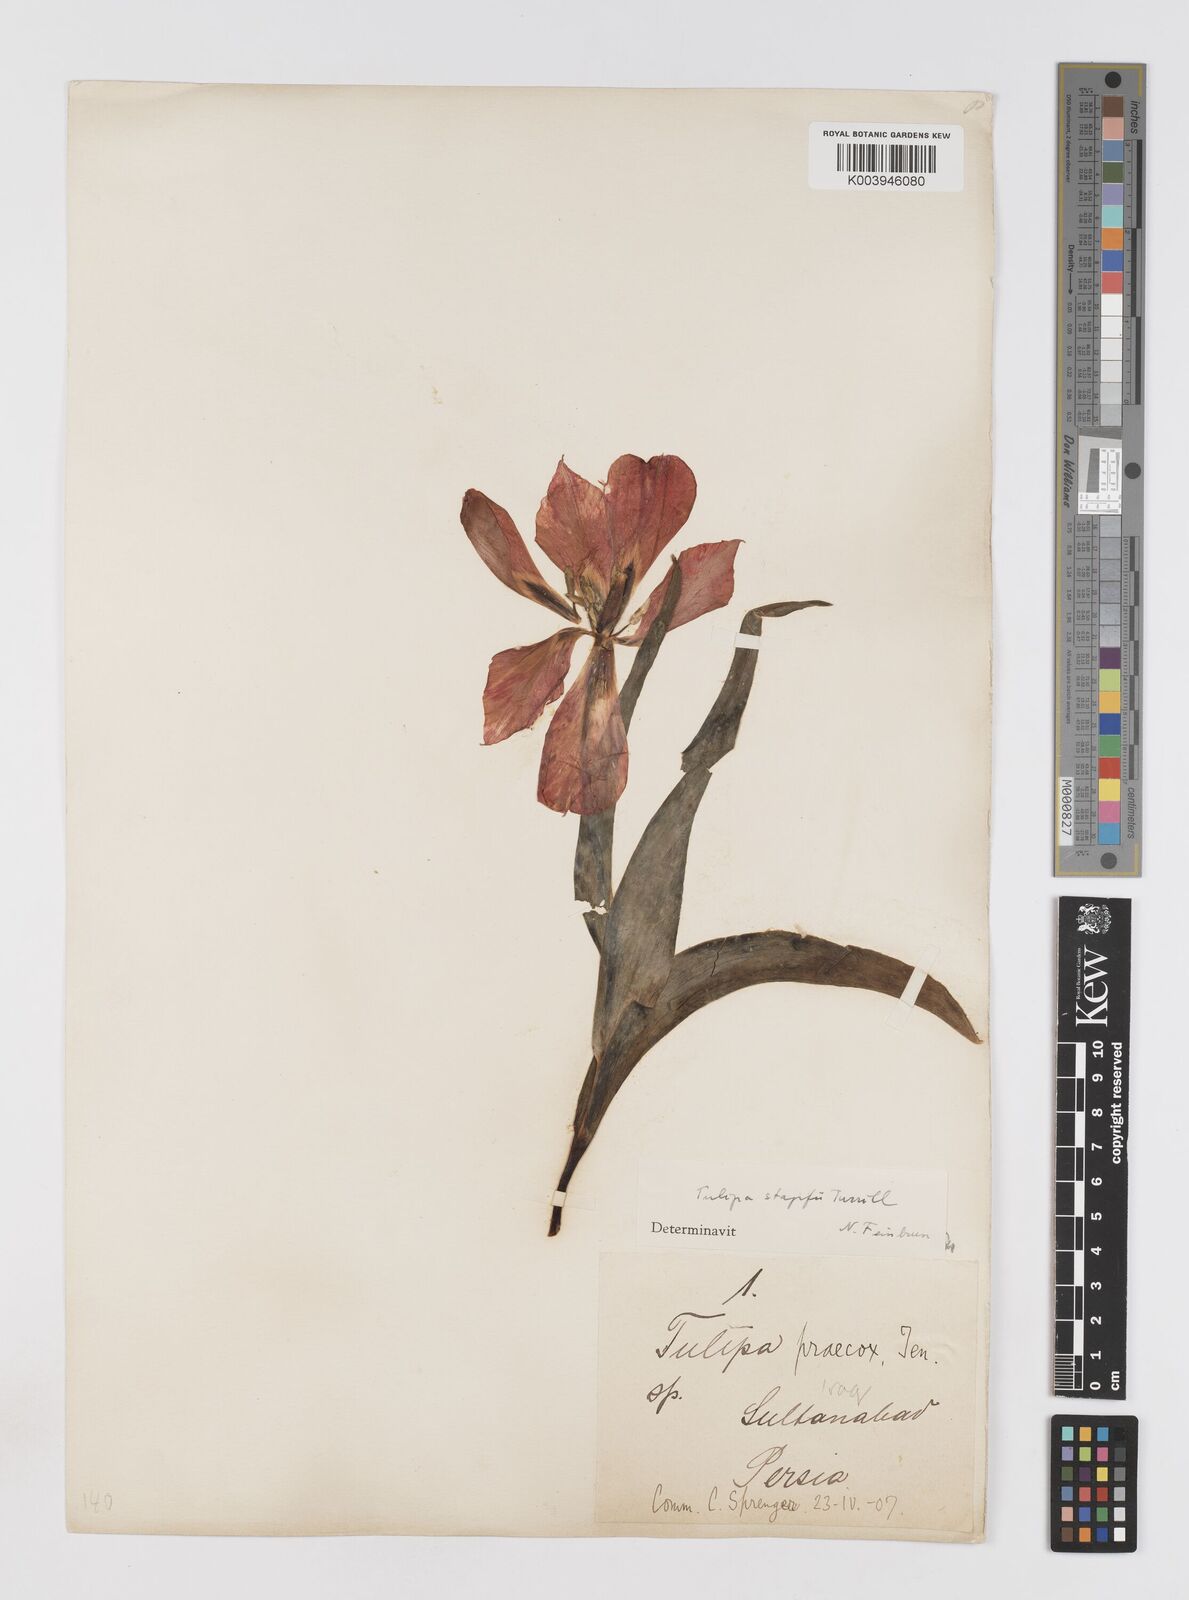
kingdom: Plantae
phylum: Tracheophyta
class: Liliopsida
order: Liliales
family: Liliaceae
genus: Tulipa
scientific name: Tulipa systola
